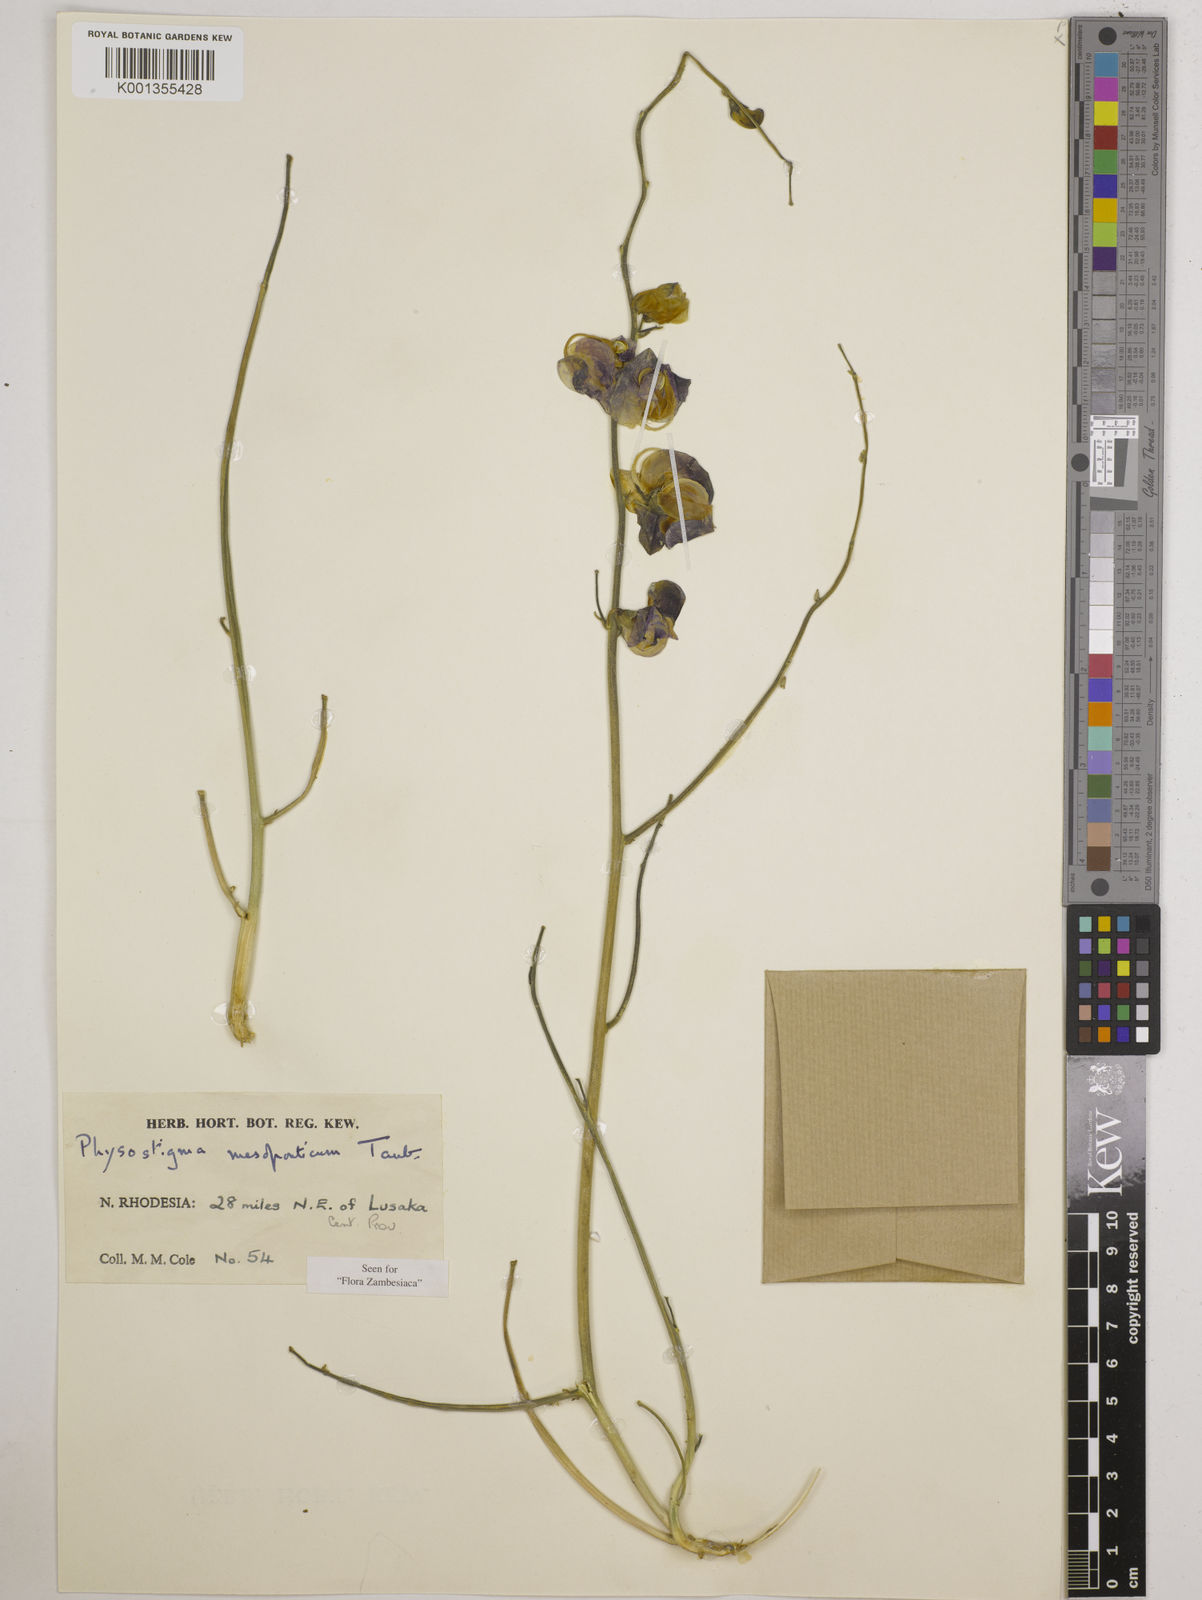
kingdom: Plantae
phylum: Tracheophyta
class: Magnoliopsida
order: Fabales
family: Fabaceae
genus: Physostigma
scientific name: Physostigma mesoponticum
